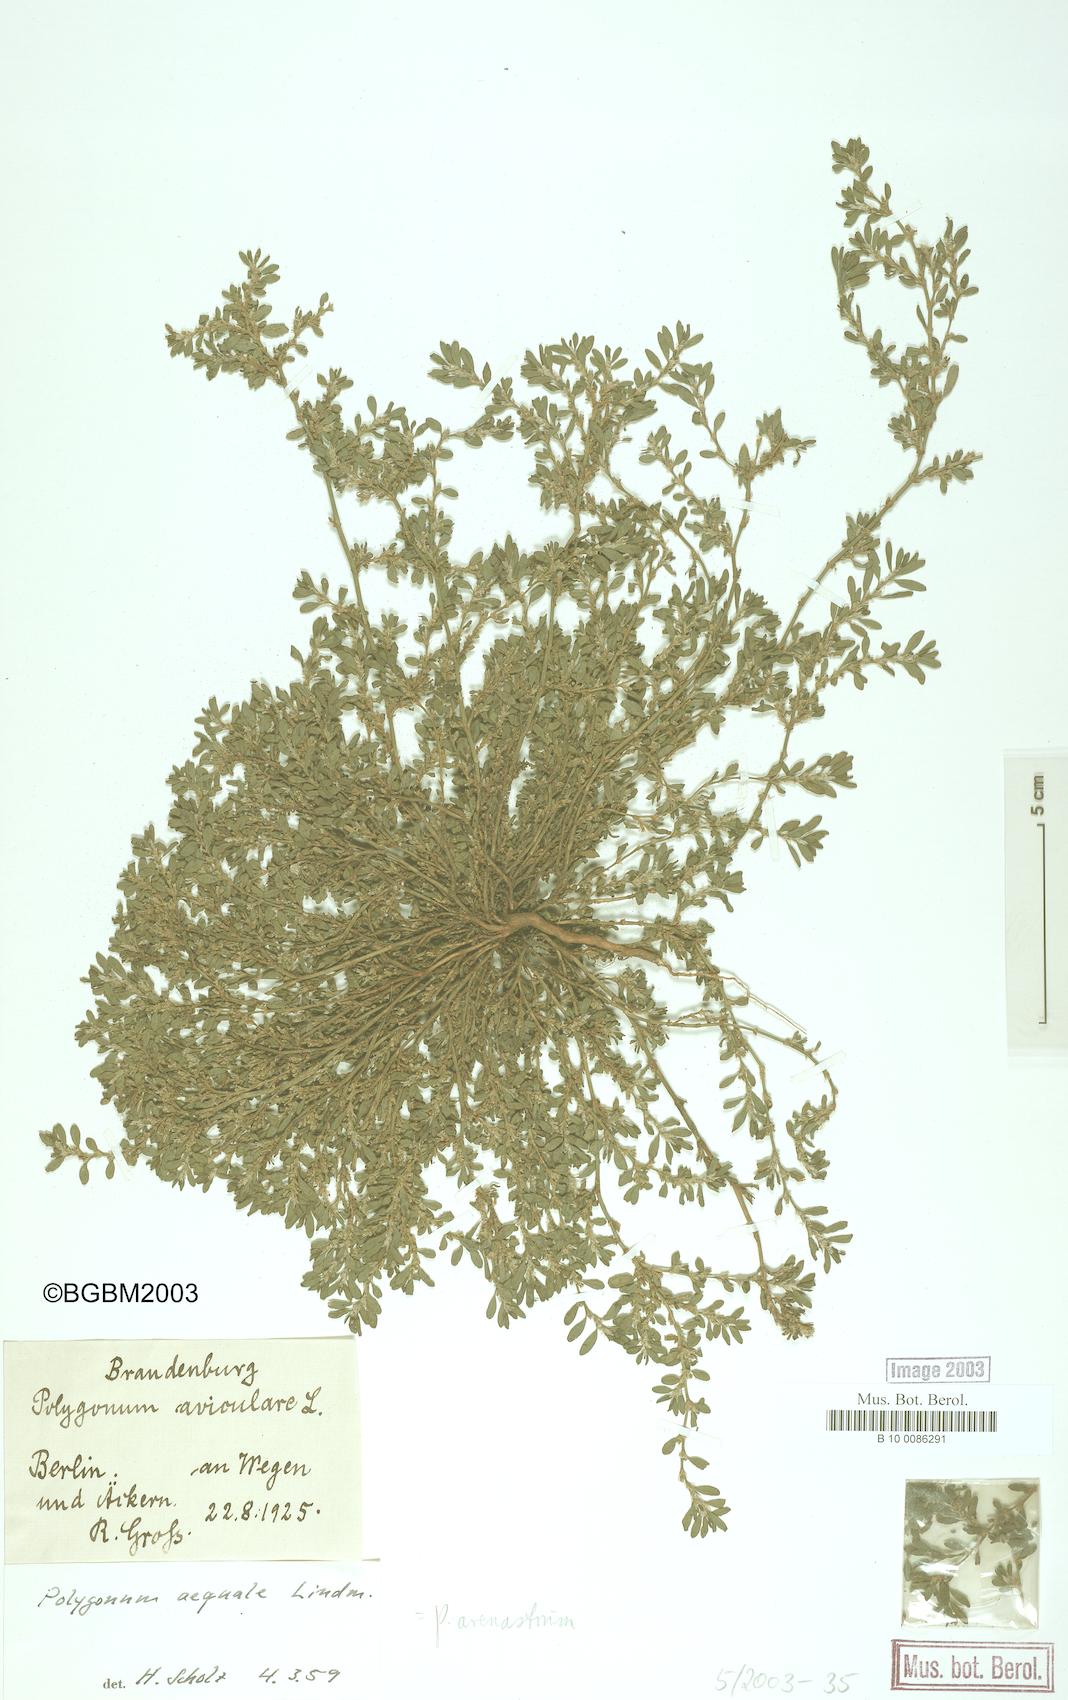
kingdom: Plantae
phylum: Tracheophyta
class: Magnoliopsida
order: Caryophyllales
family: Polygonaceae
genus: Polygonum
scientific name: Polygonum arenastrum
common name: Equal-leaved knotgrass
